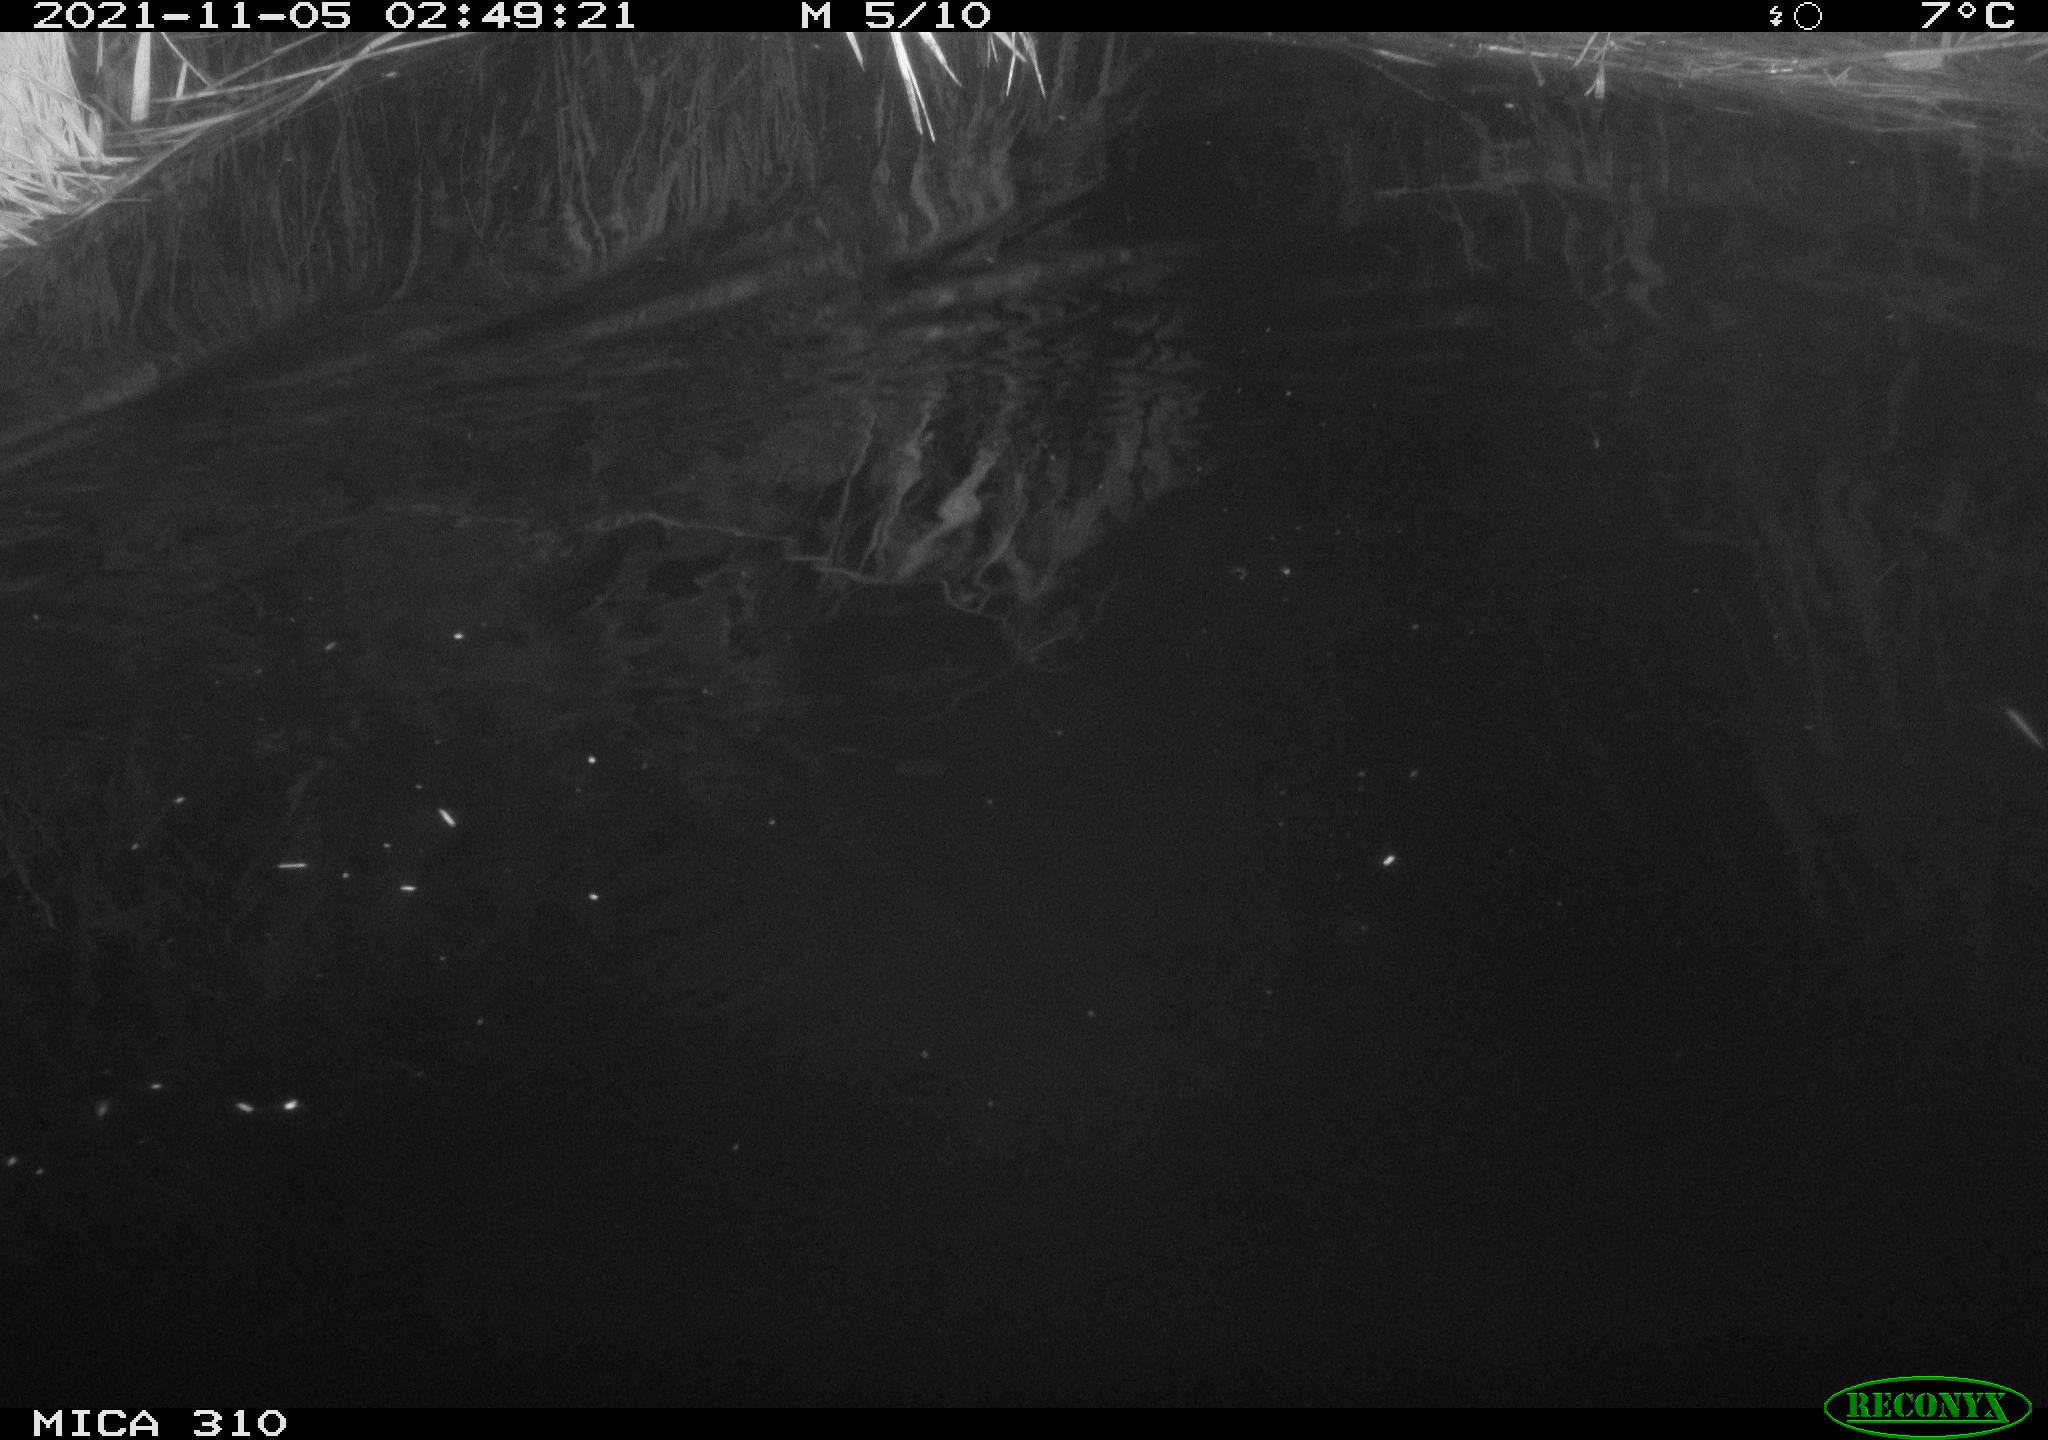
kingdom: Animalia
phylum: Chordata
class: Mammalia
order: Rodentia
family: Muridae
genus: Rattus
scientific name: Rattus norvegicus
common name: Brown rat
